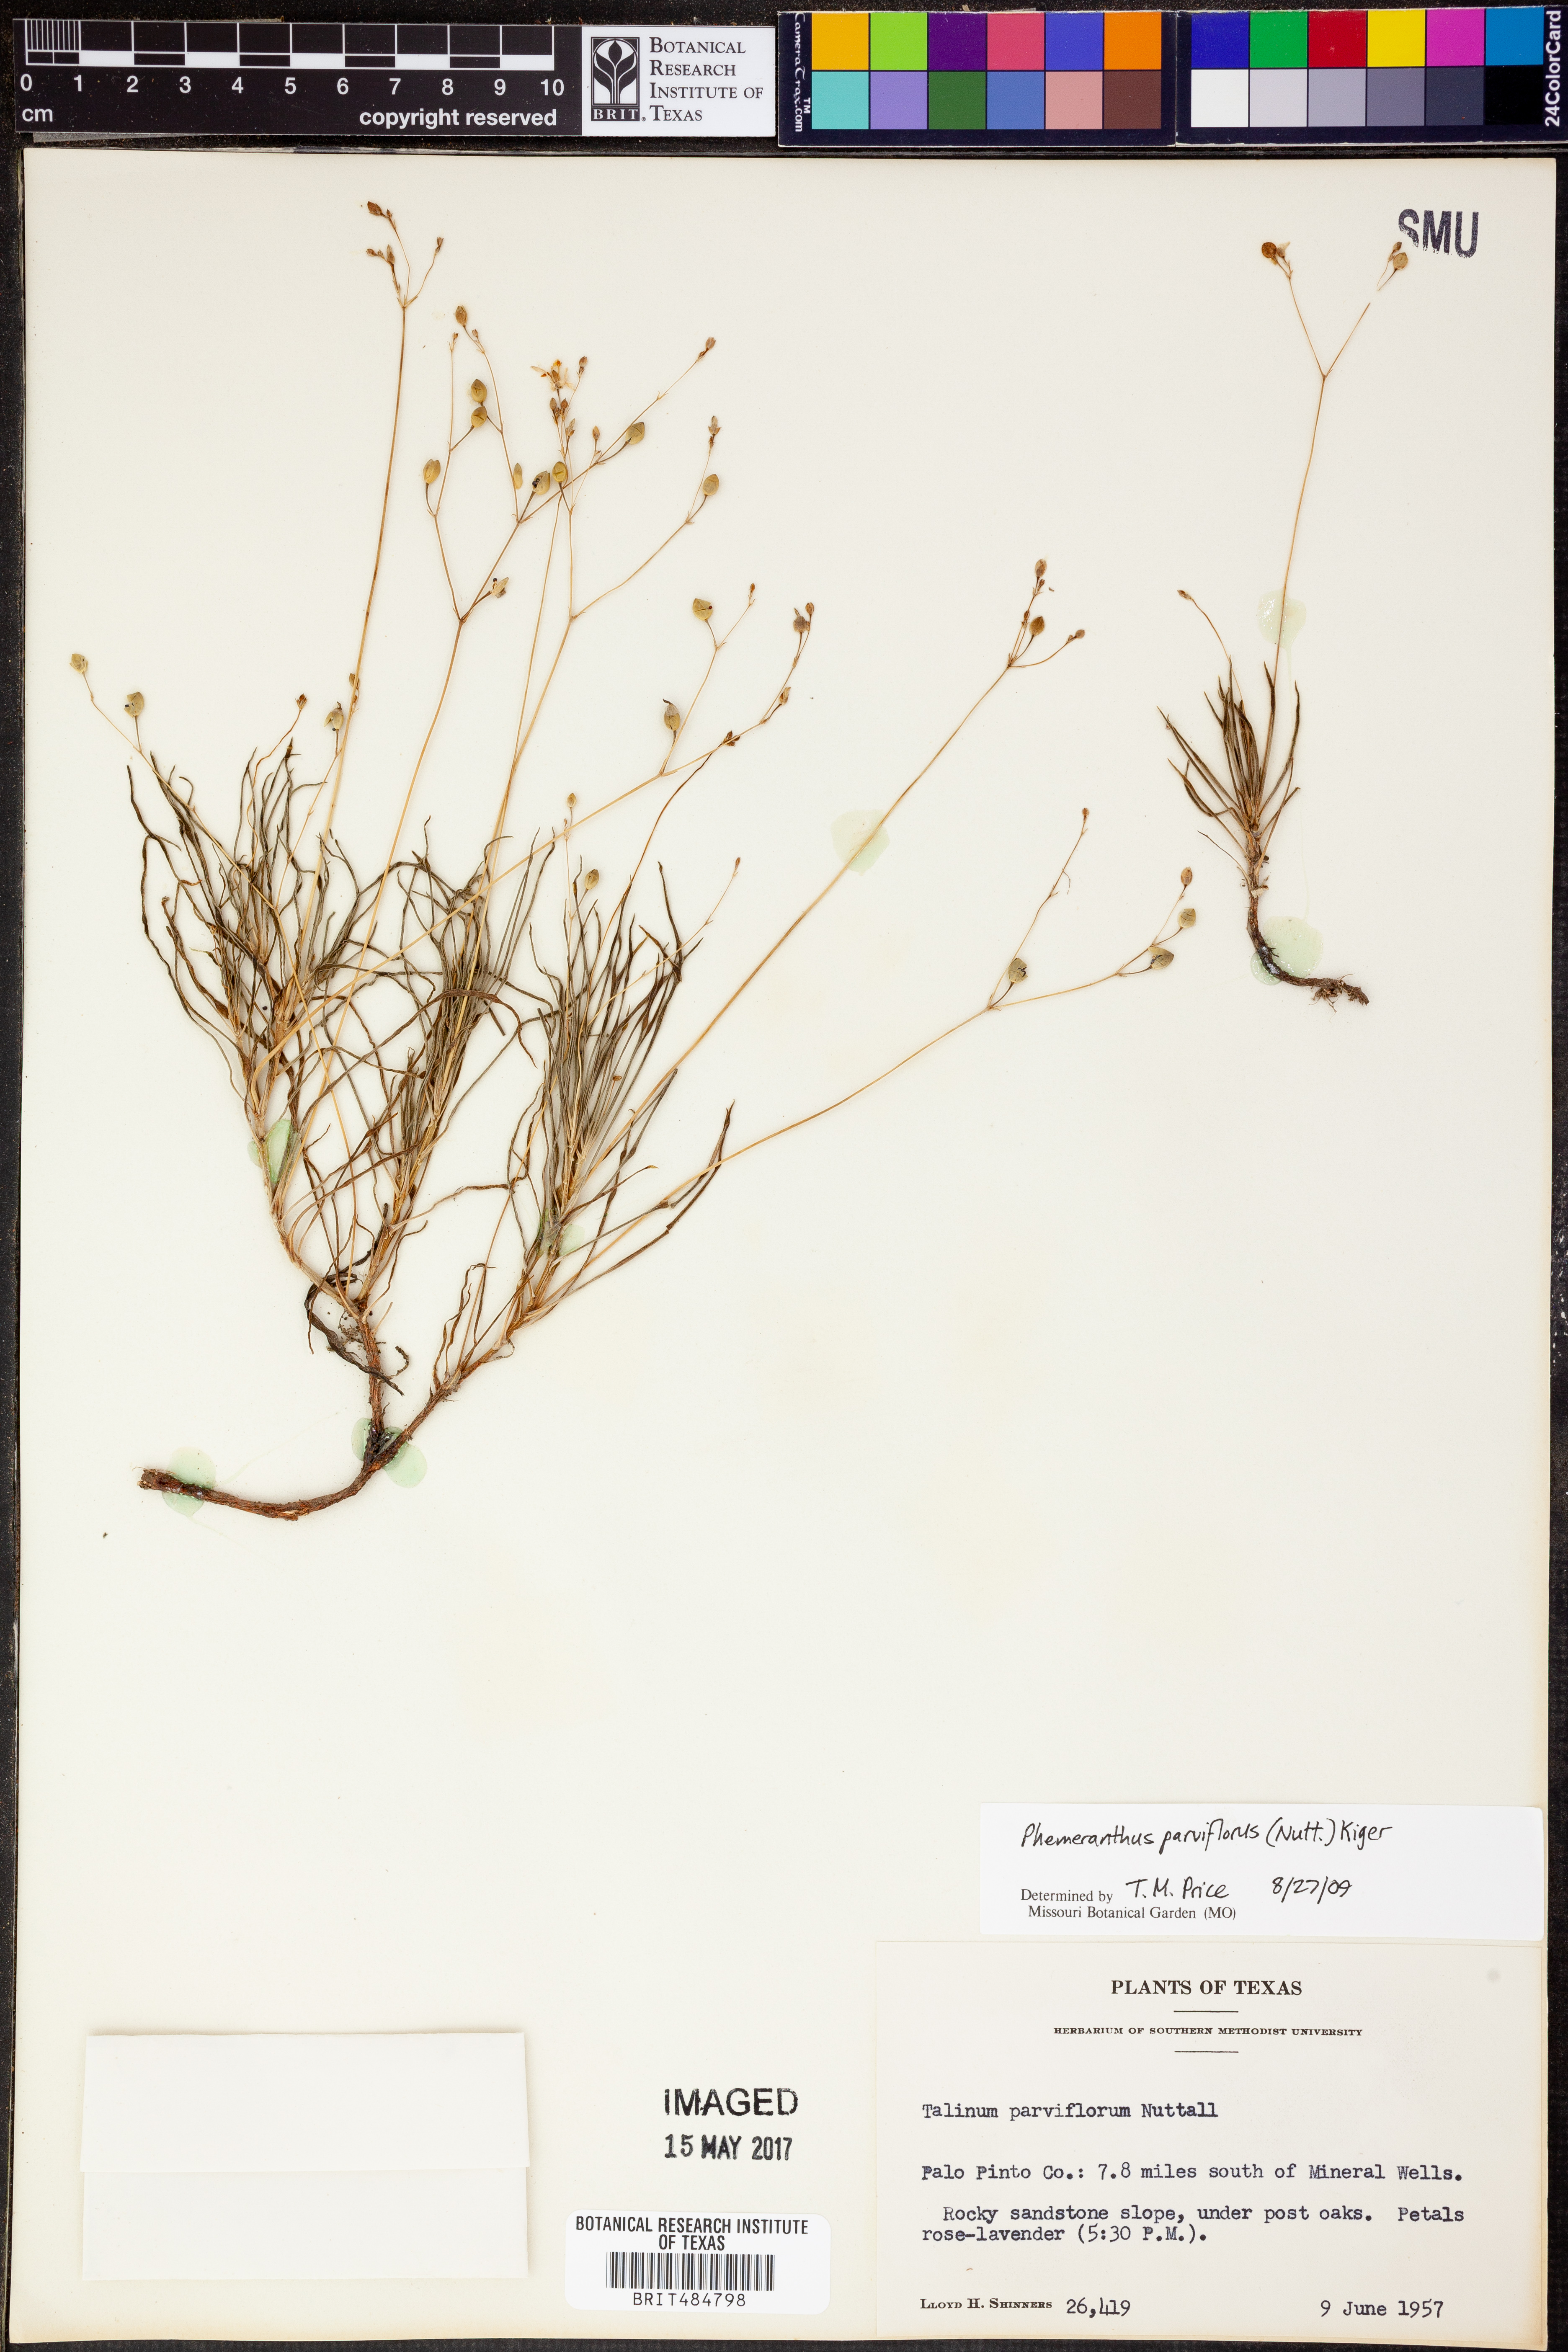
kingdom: Plantae
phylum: Tracheophyta
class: Magnoliopsida
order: Caryophyllales
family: Montiaceae
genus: Phemeranthus
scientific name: Phemeranthus parviflorus
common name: Sunbright
